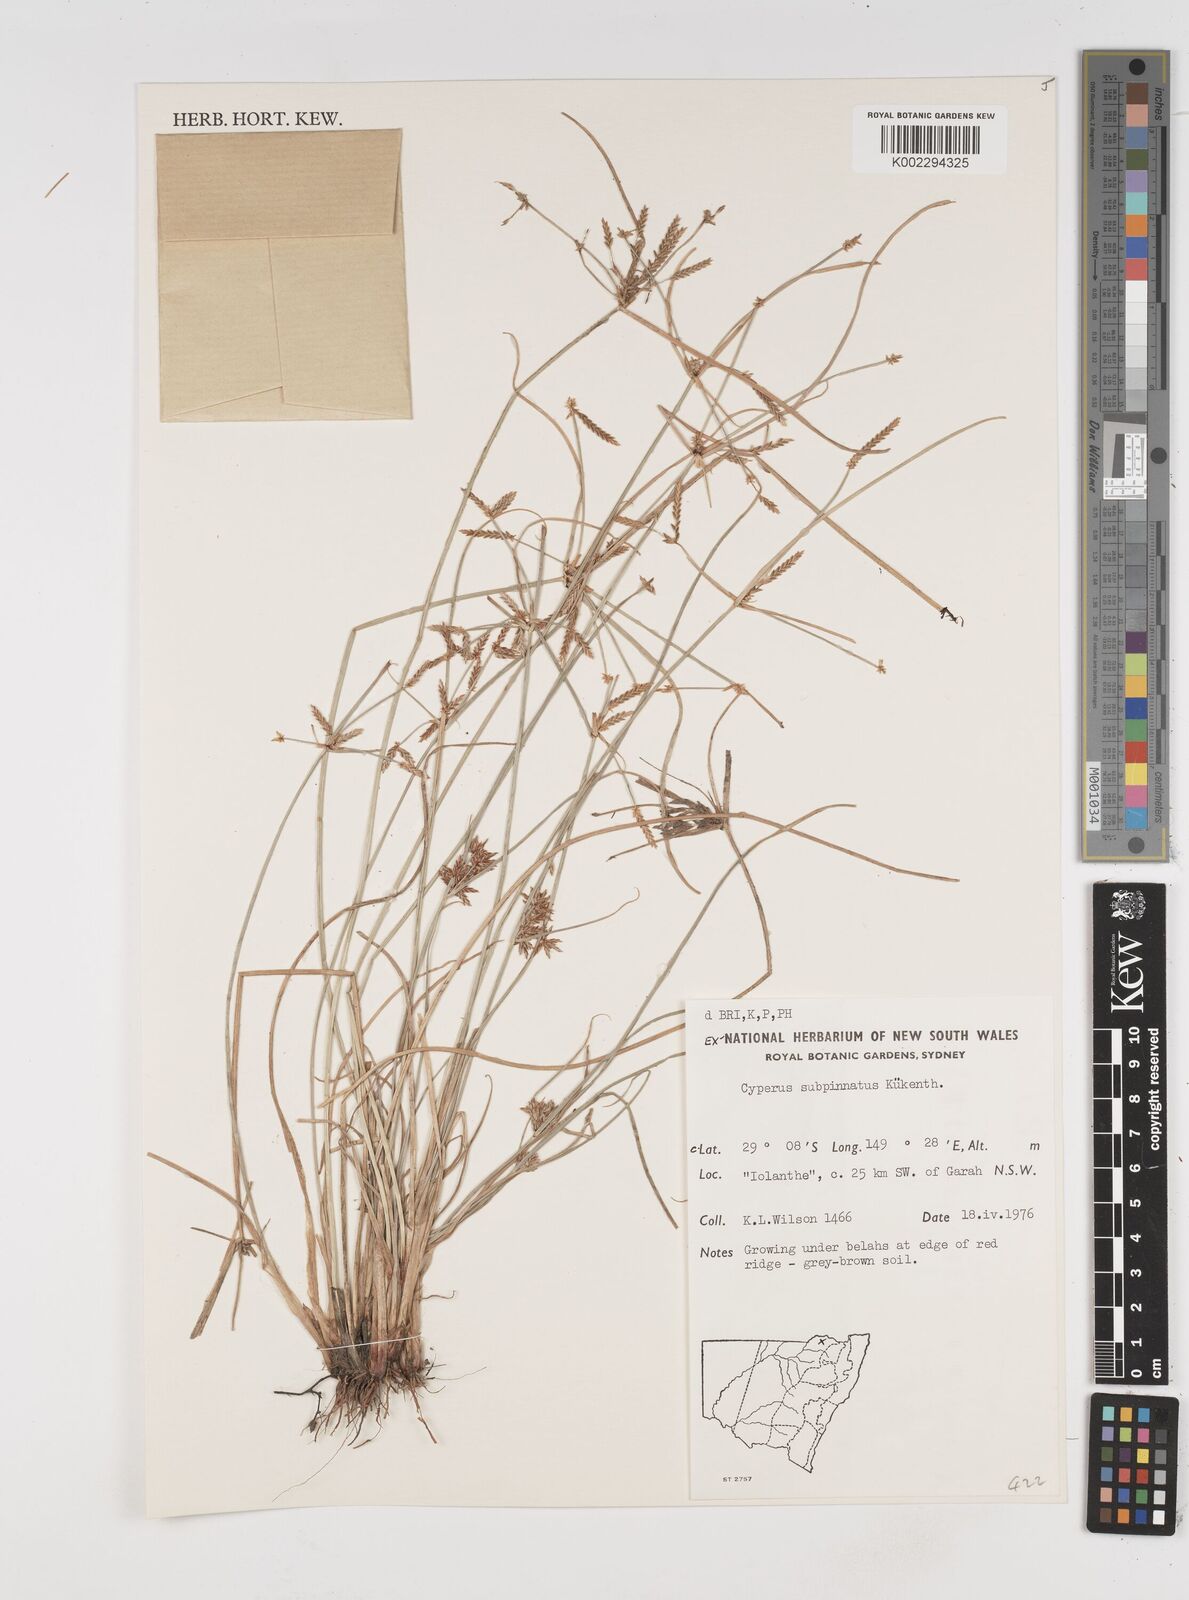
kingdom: Plantae
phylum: Tracheophyta
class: Liliopsida
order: Poales
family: Cyperaceae
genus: Cyperus
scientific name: Cyperus rigidellus
